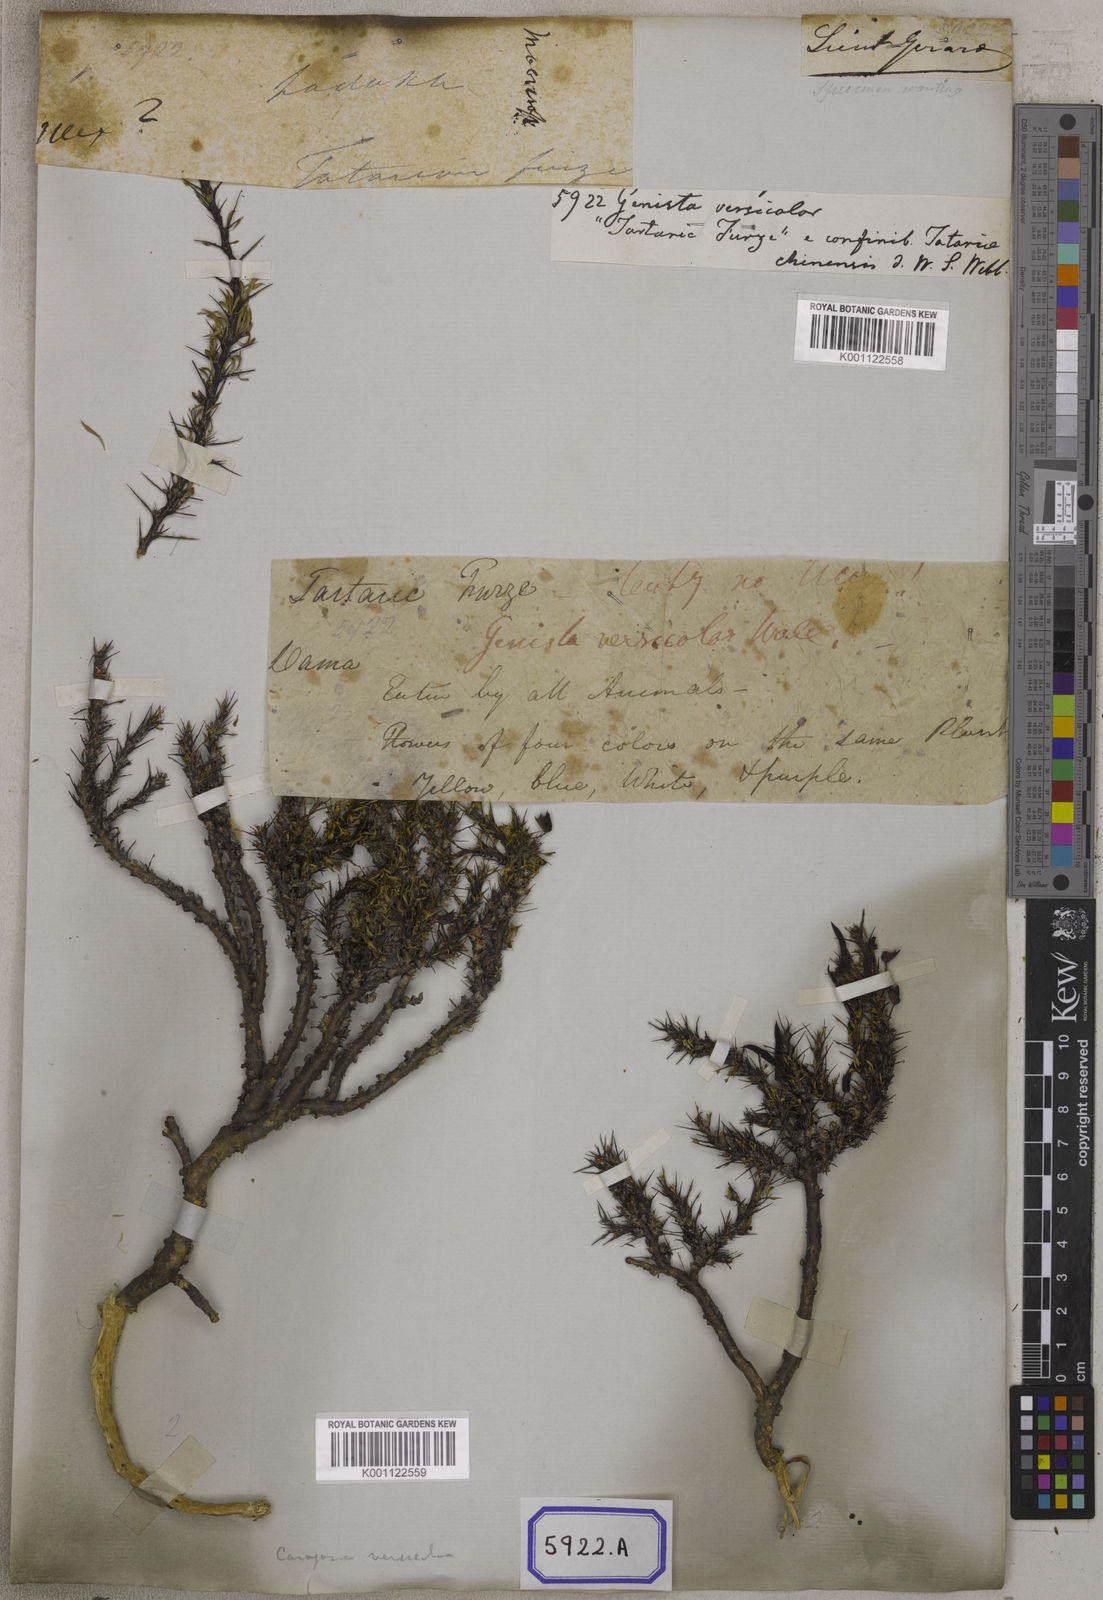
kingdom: Plantae
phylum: Tracheophyta
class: Magnoliopsida
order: Fabales
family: Fabaceae
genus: Genista
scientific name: Genista
